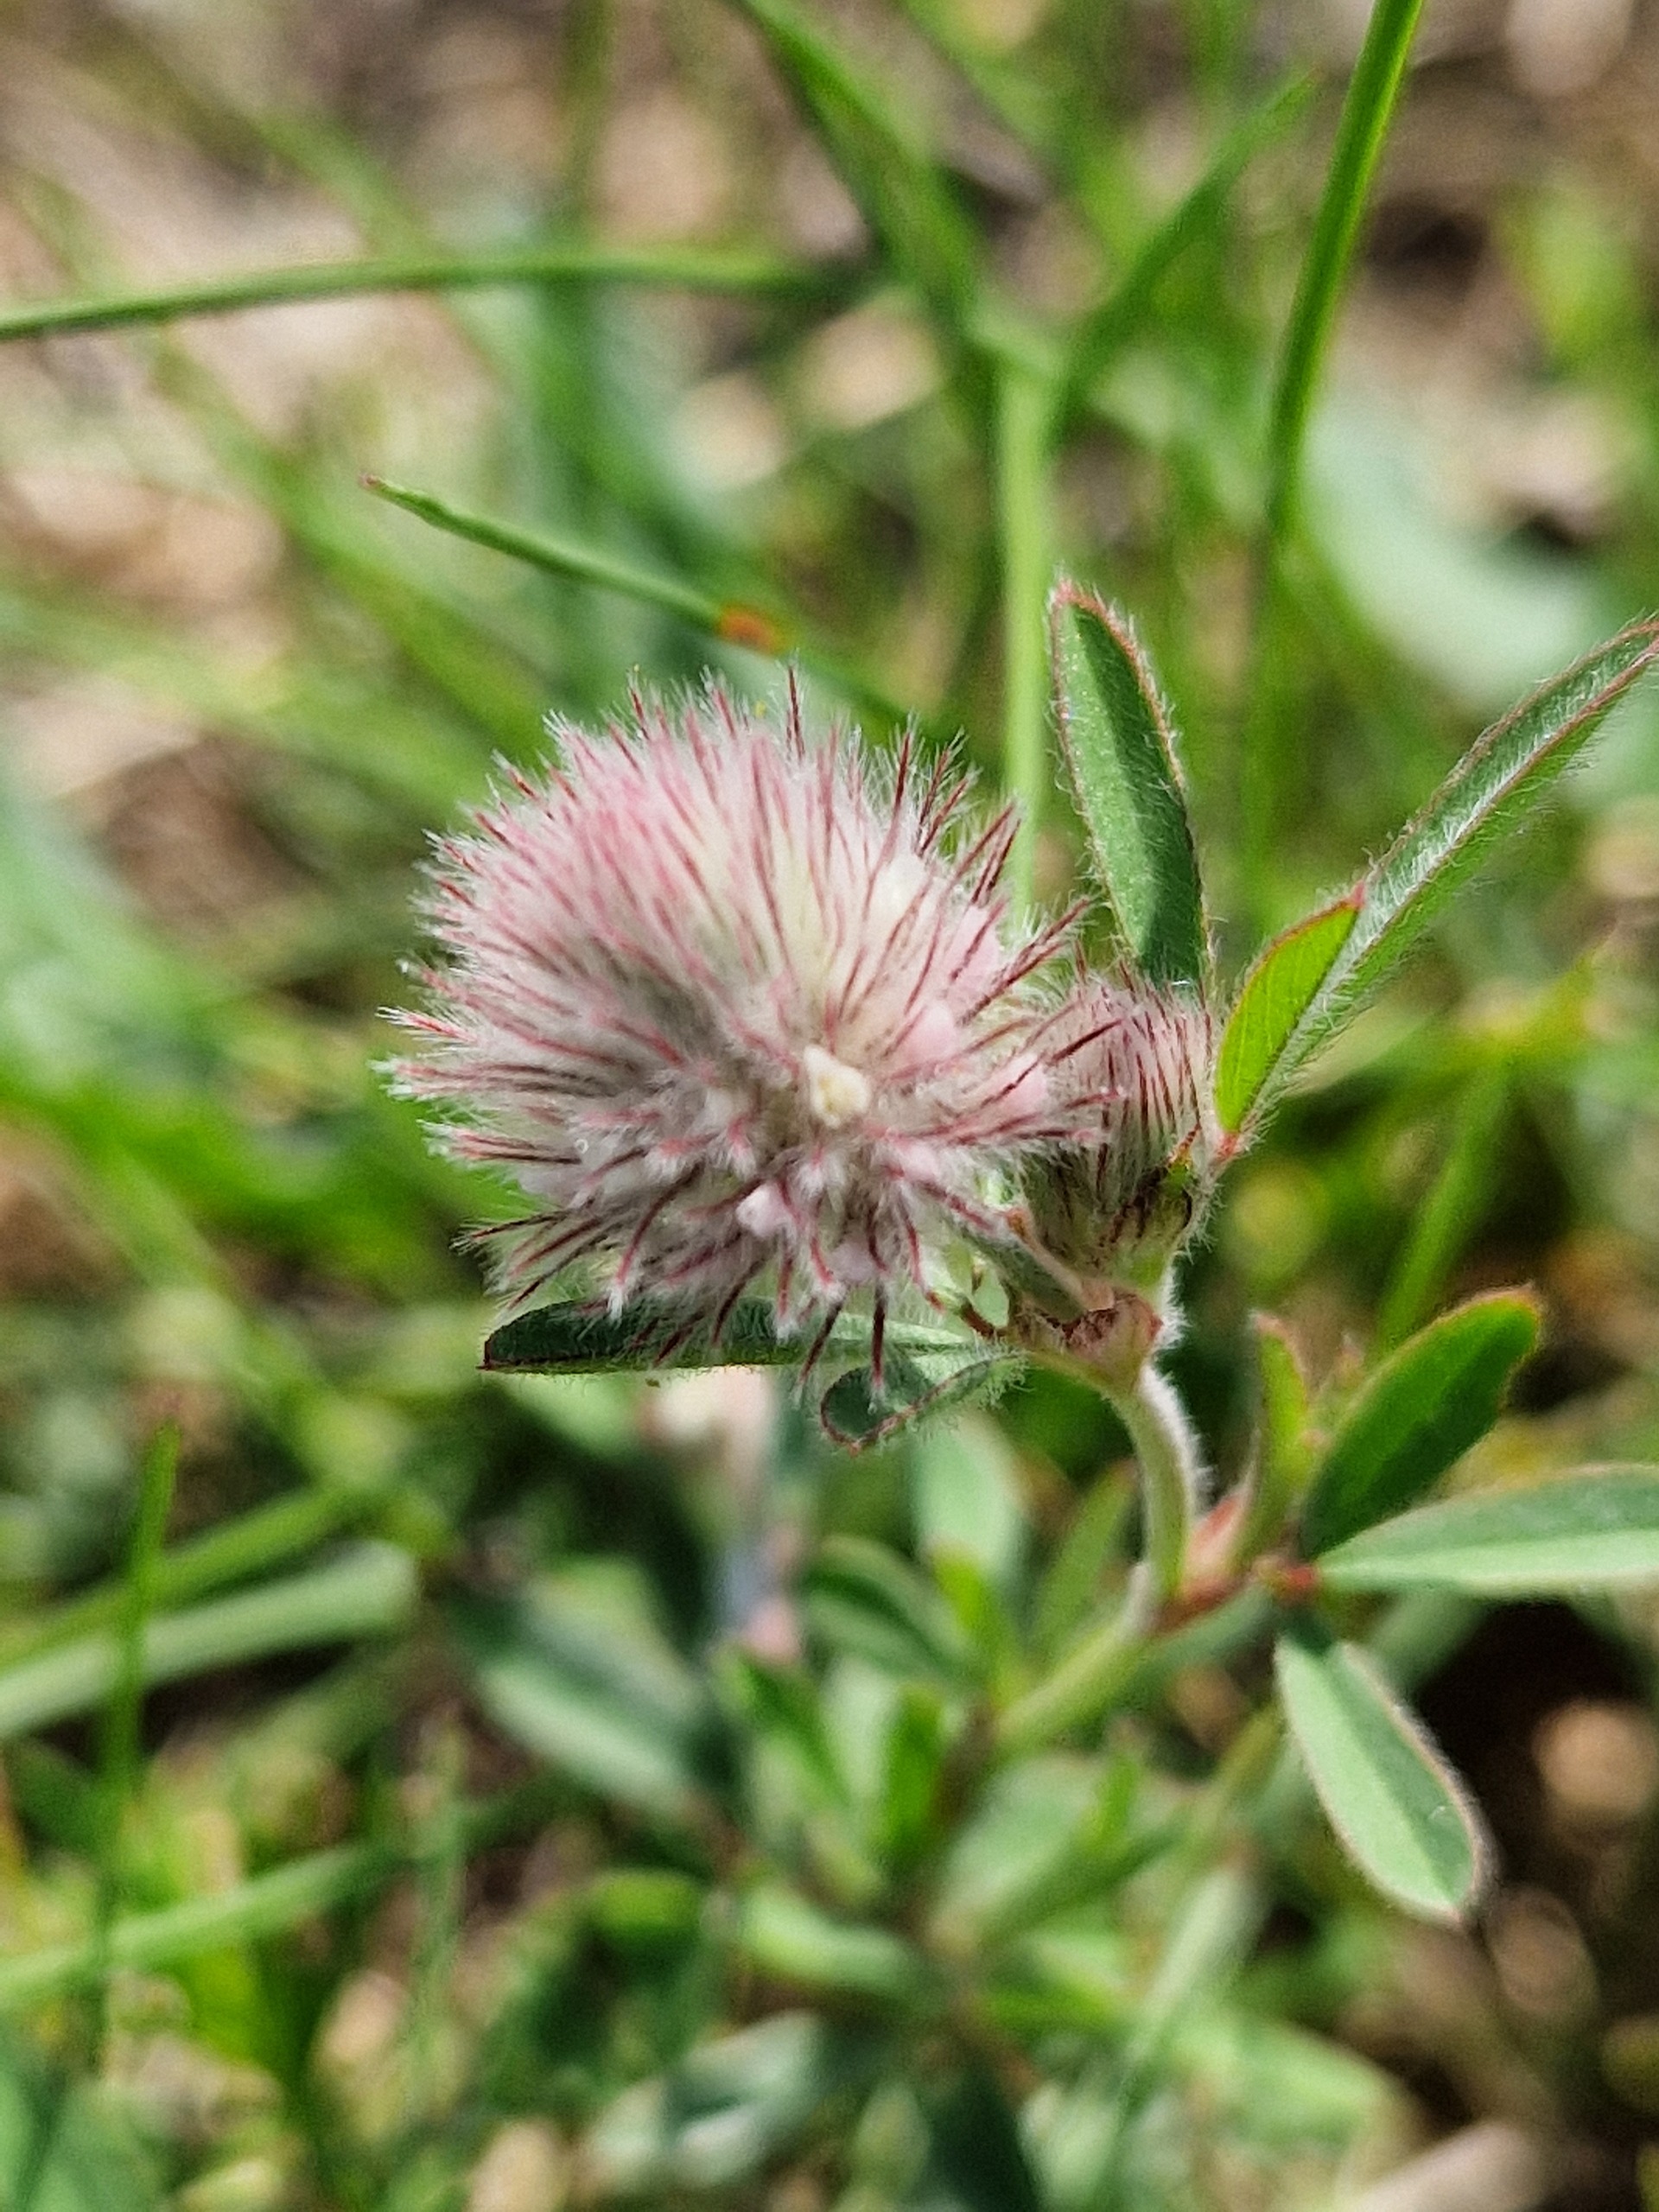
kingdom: Plantae
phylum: Tracheophyta
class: Magnoliopsida
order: Fabales
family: Fabaceae
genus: Trifolium
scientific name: Trifolium arvense
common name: Hare-kløver
